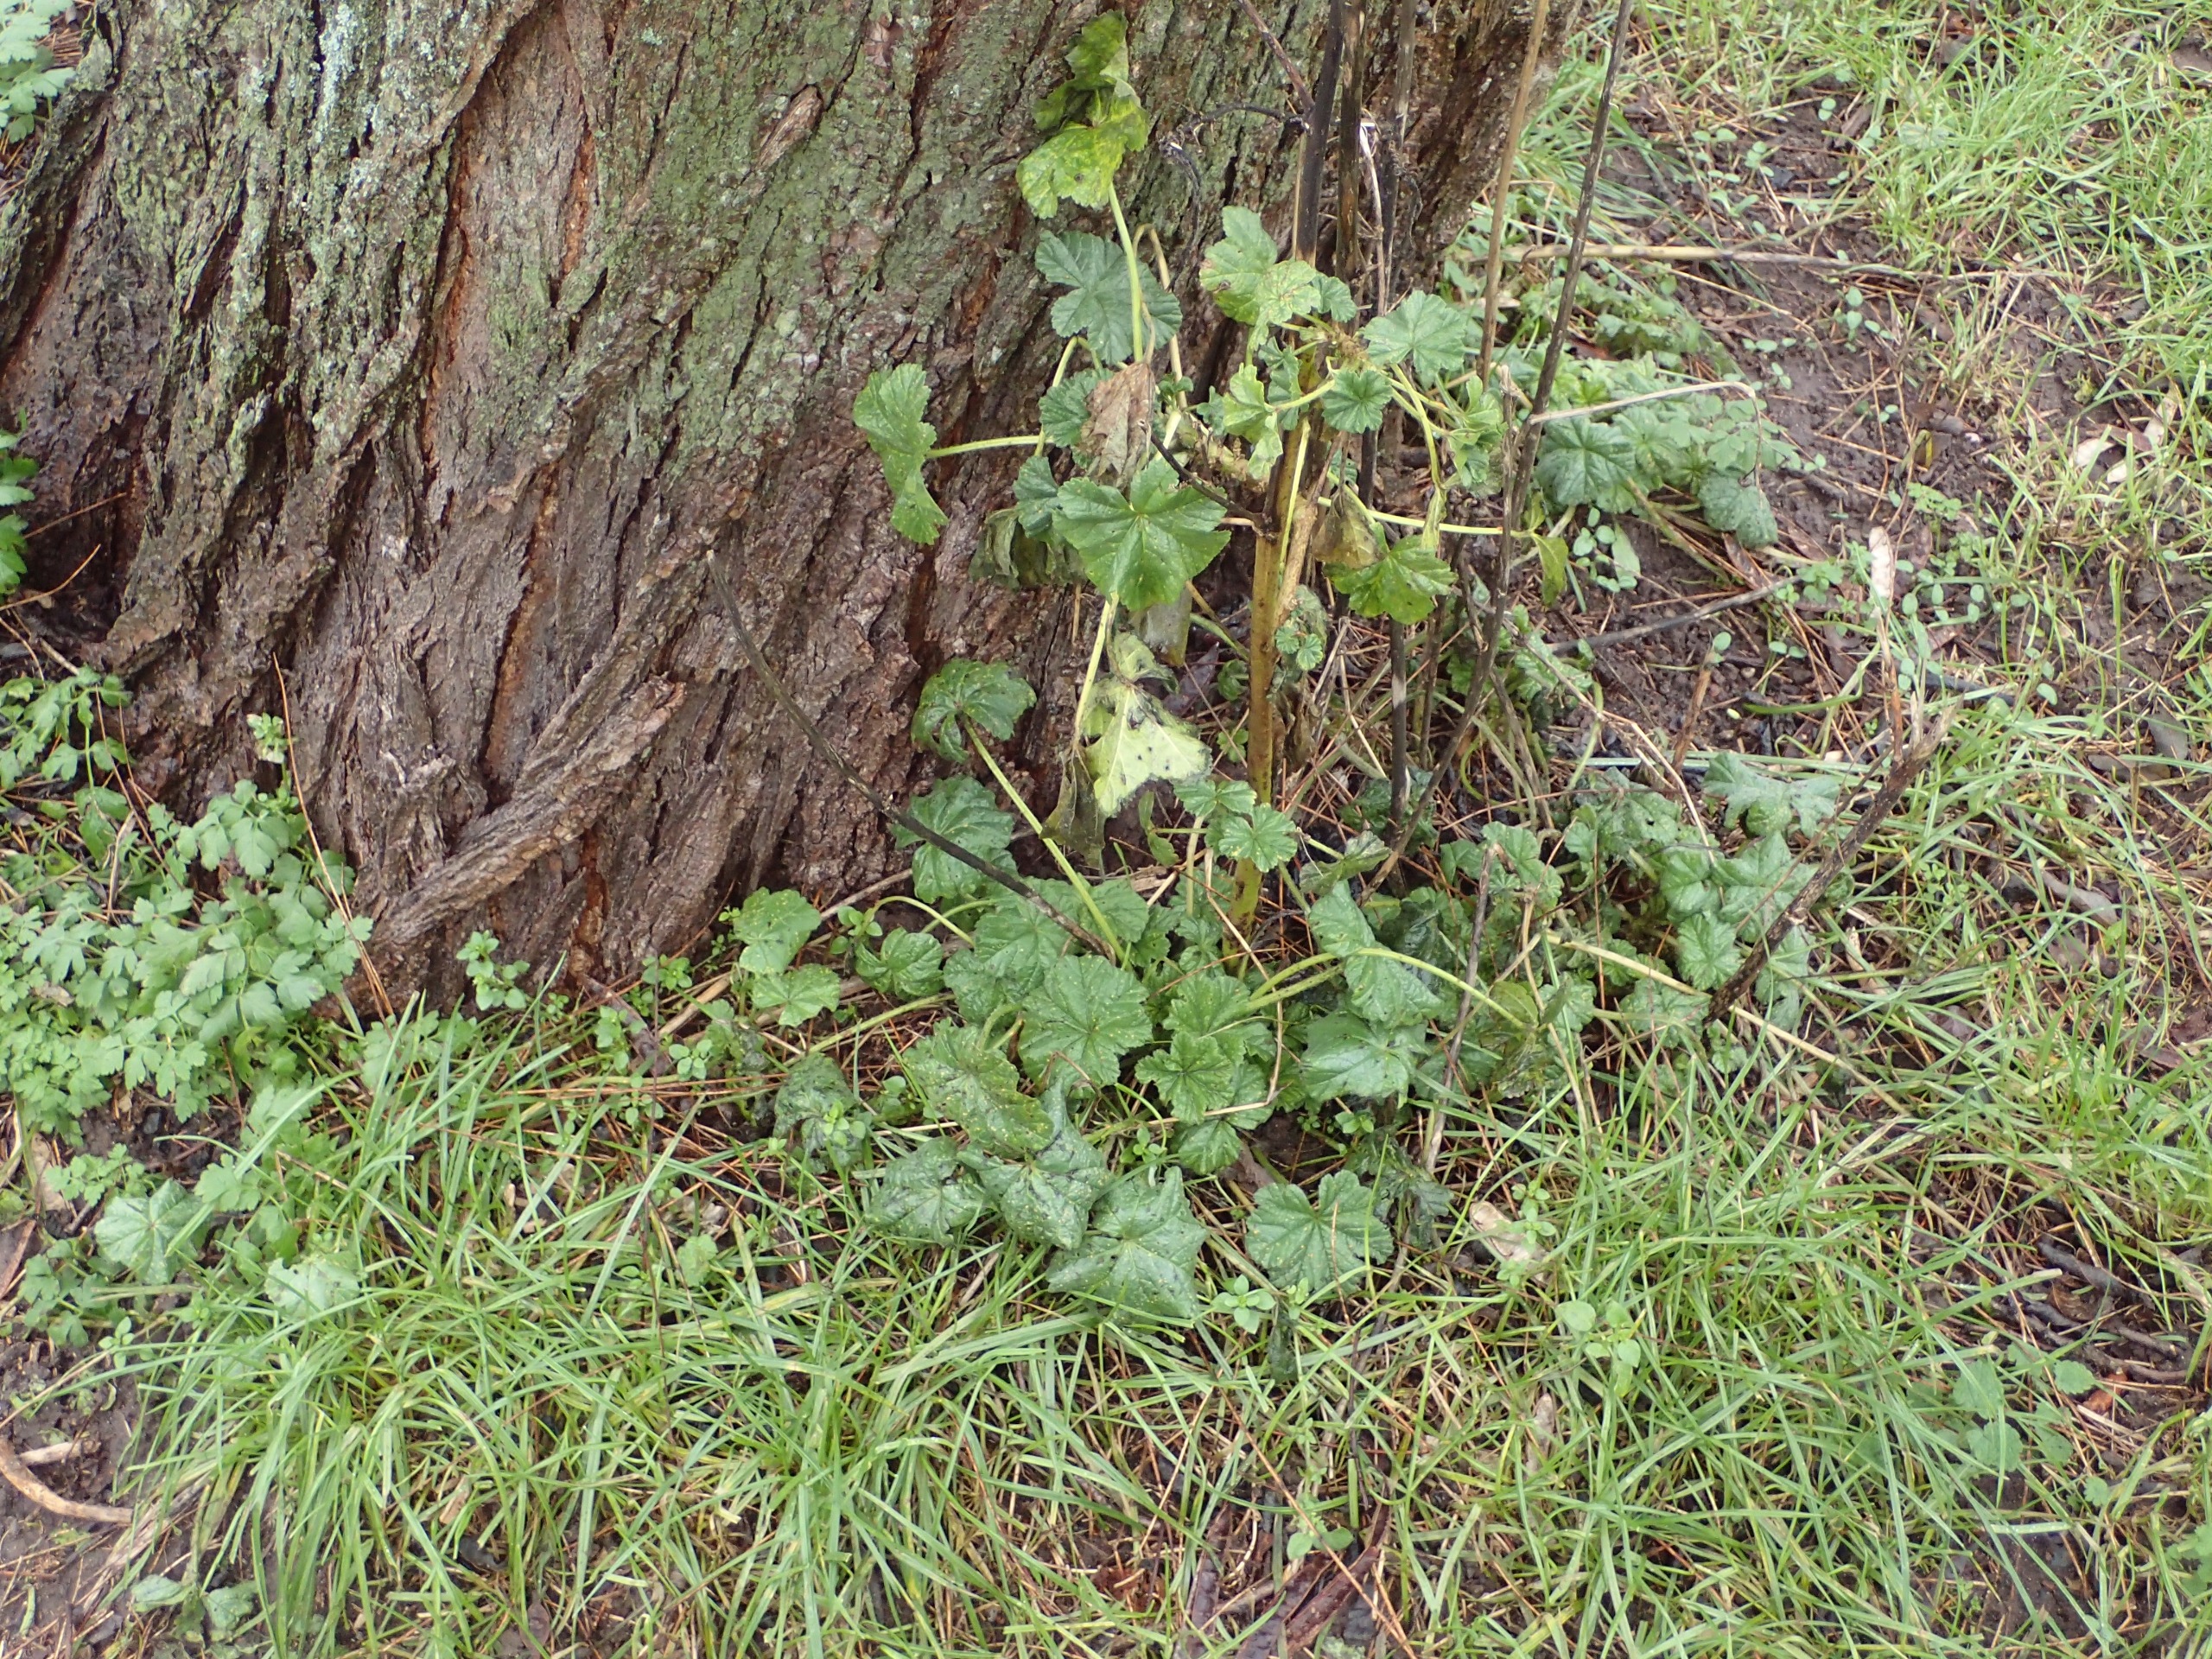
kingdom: Plantae
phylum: Tracheophyta
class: Magnoliopsida
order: Malvales
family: Malvaceae
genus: Malva
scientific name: Malva sylvestris
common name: Almindelig katost
